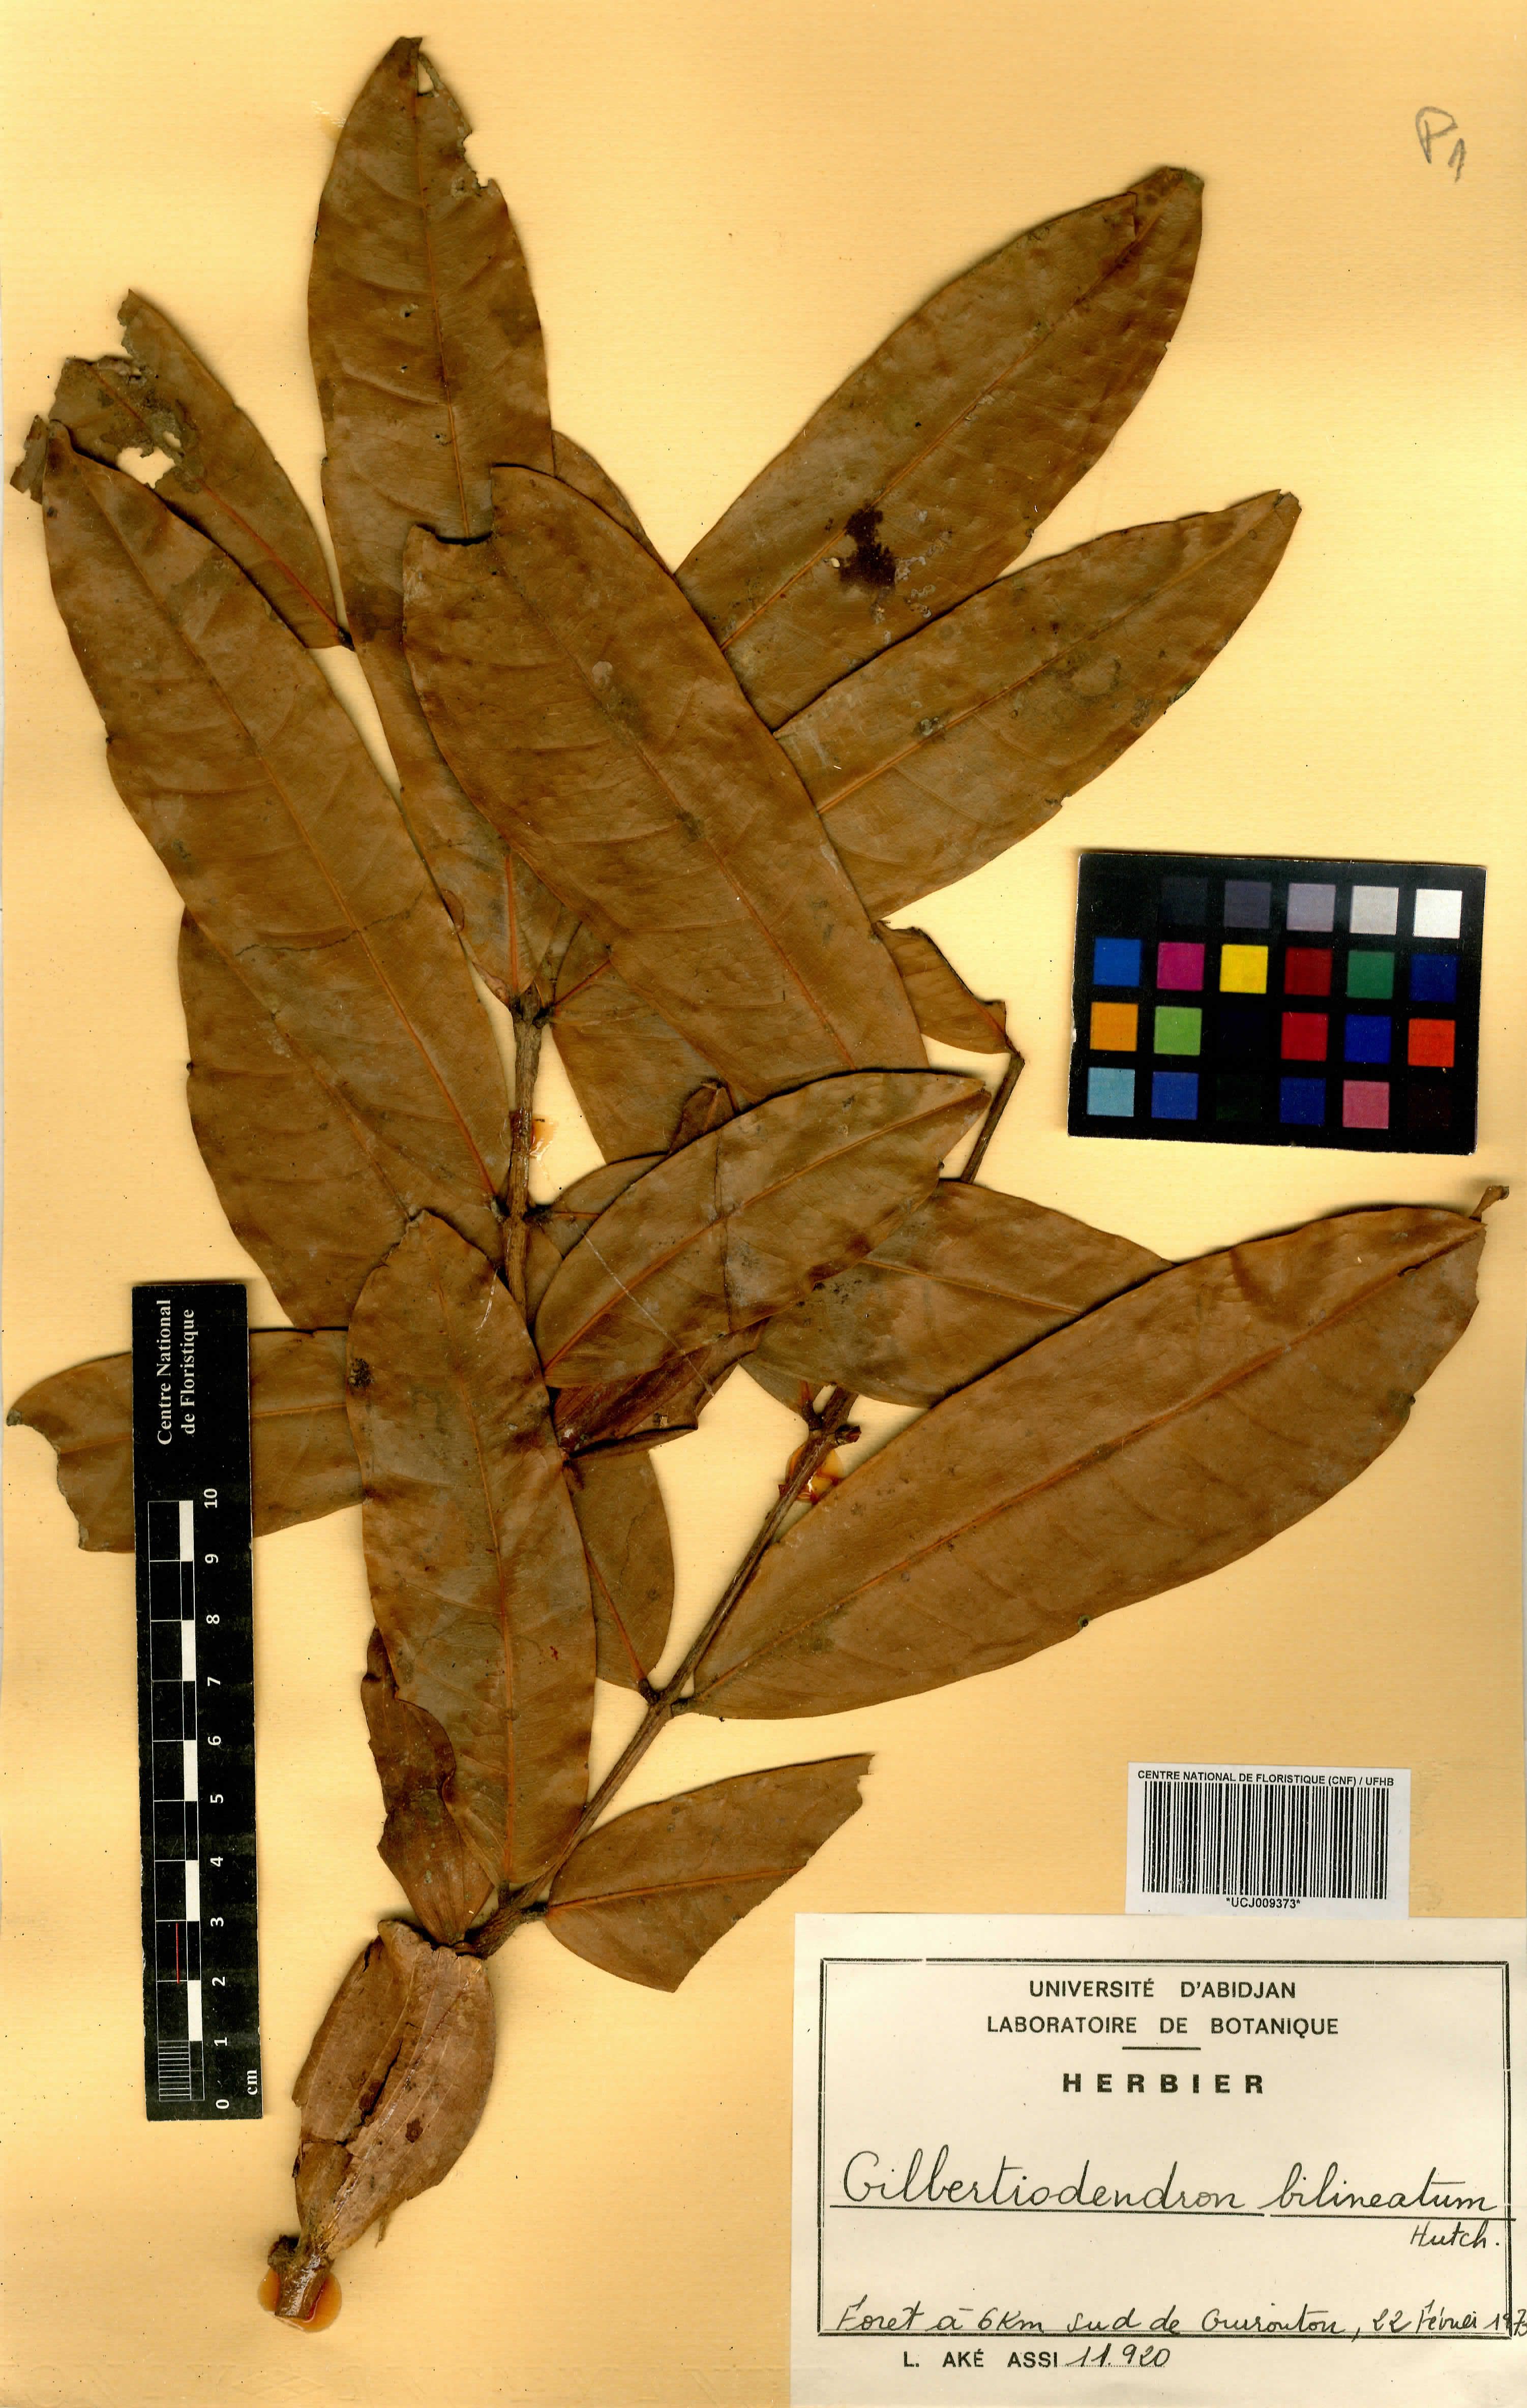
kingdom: Plantae
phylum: Tracheophyta
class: Magnoliopsida
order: Fabales
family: Fabaceae
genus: Gilbertiodendron
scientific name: Gilbertiodendron bilineatum
